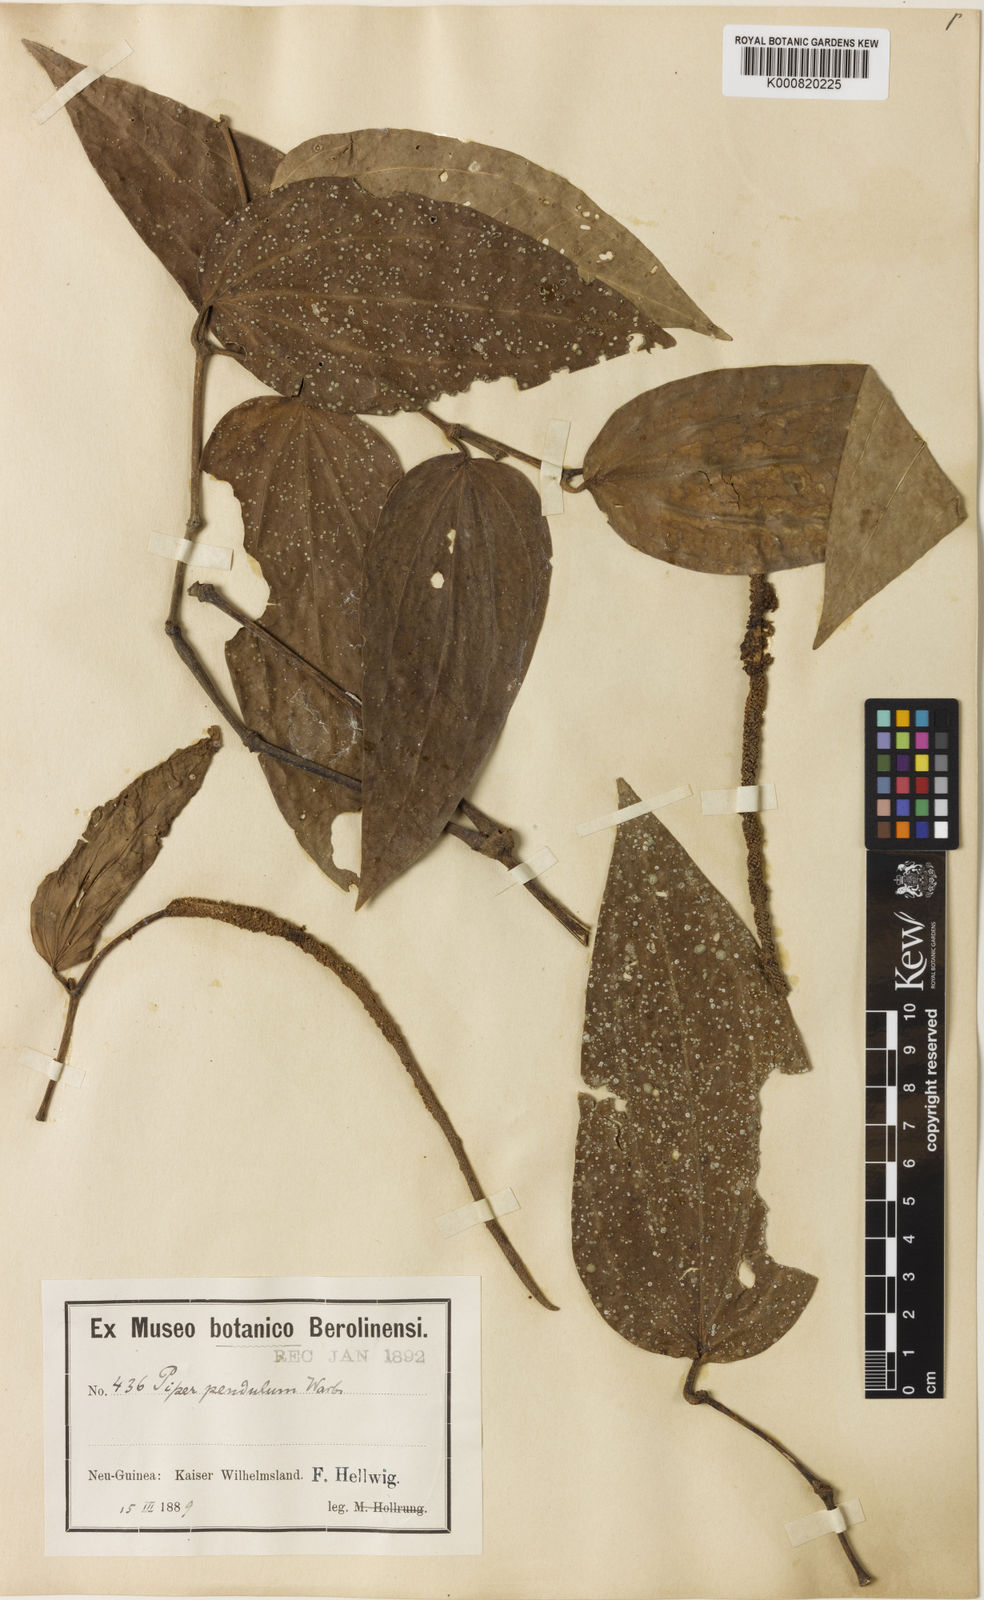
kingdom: Plantae
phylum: Tracheophyta
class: Magnoliopsida
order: Piperales
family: Piperaceae
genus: Piper
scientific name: Piper macropiper
